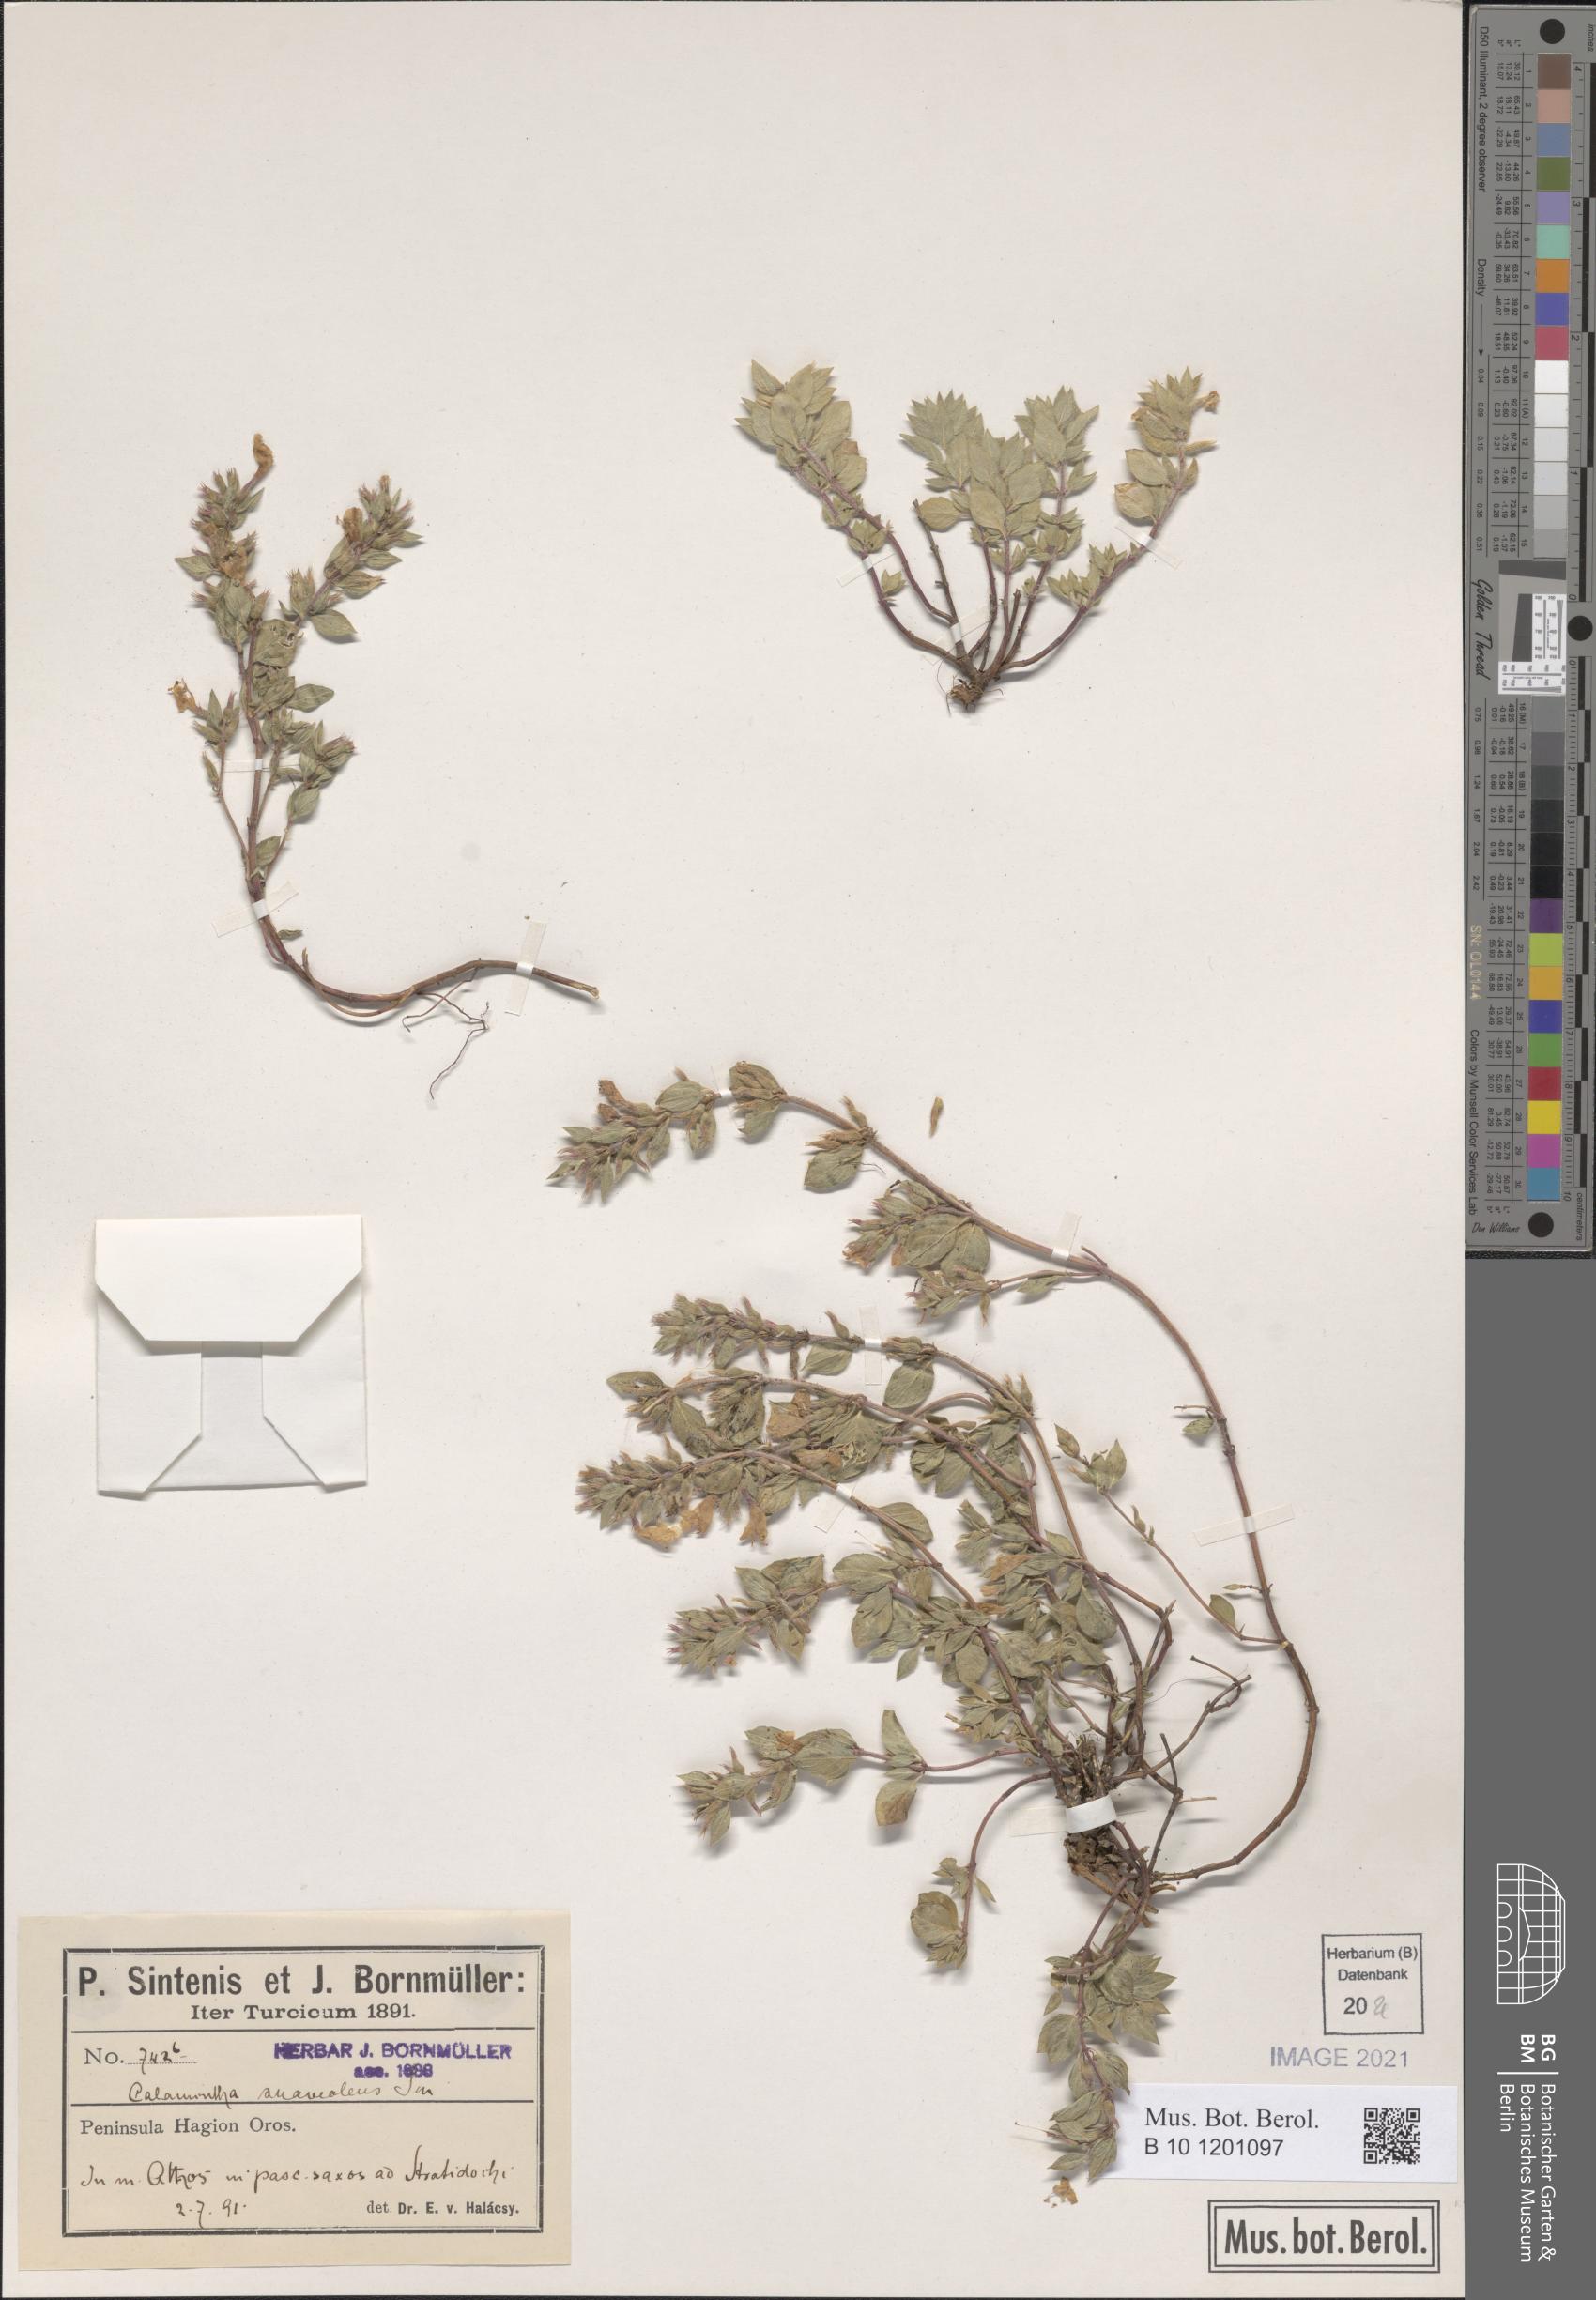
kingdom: Plantae
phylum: Tracheophyta
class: Magnoliopsida
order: Lamiales
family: Lamiaceae
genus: Clinopodium
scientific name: Clinopodium suaveolens
